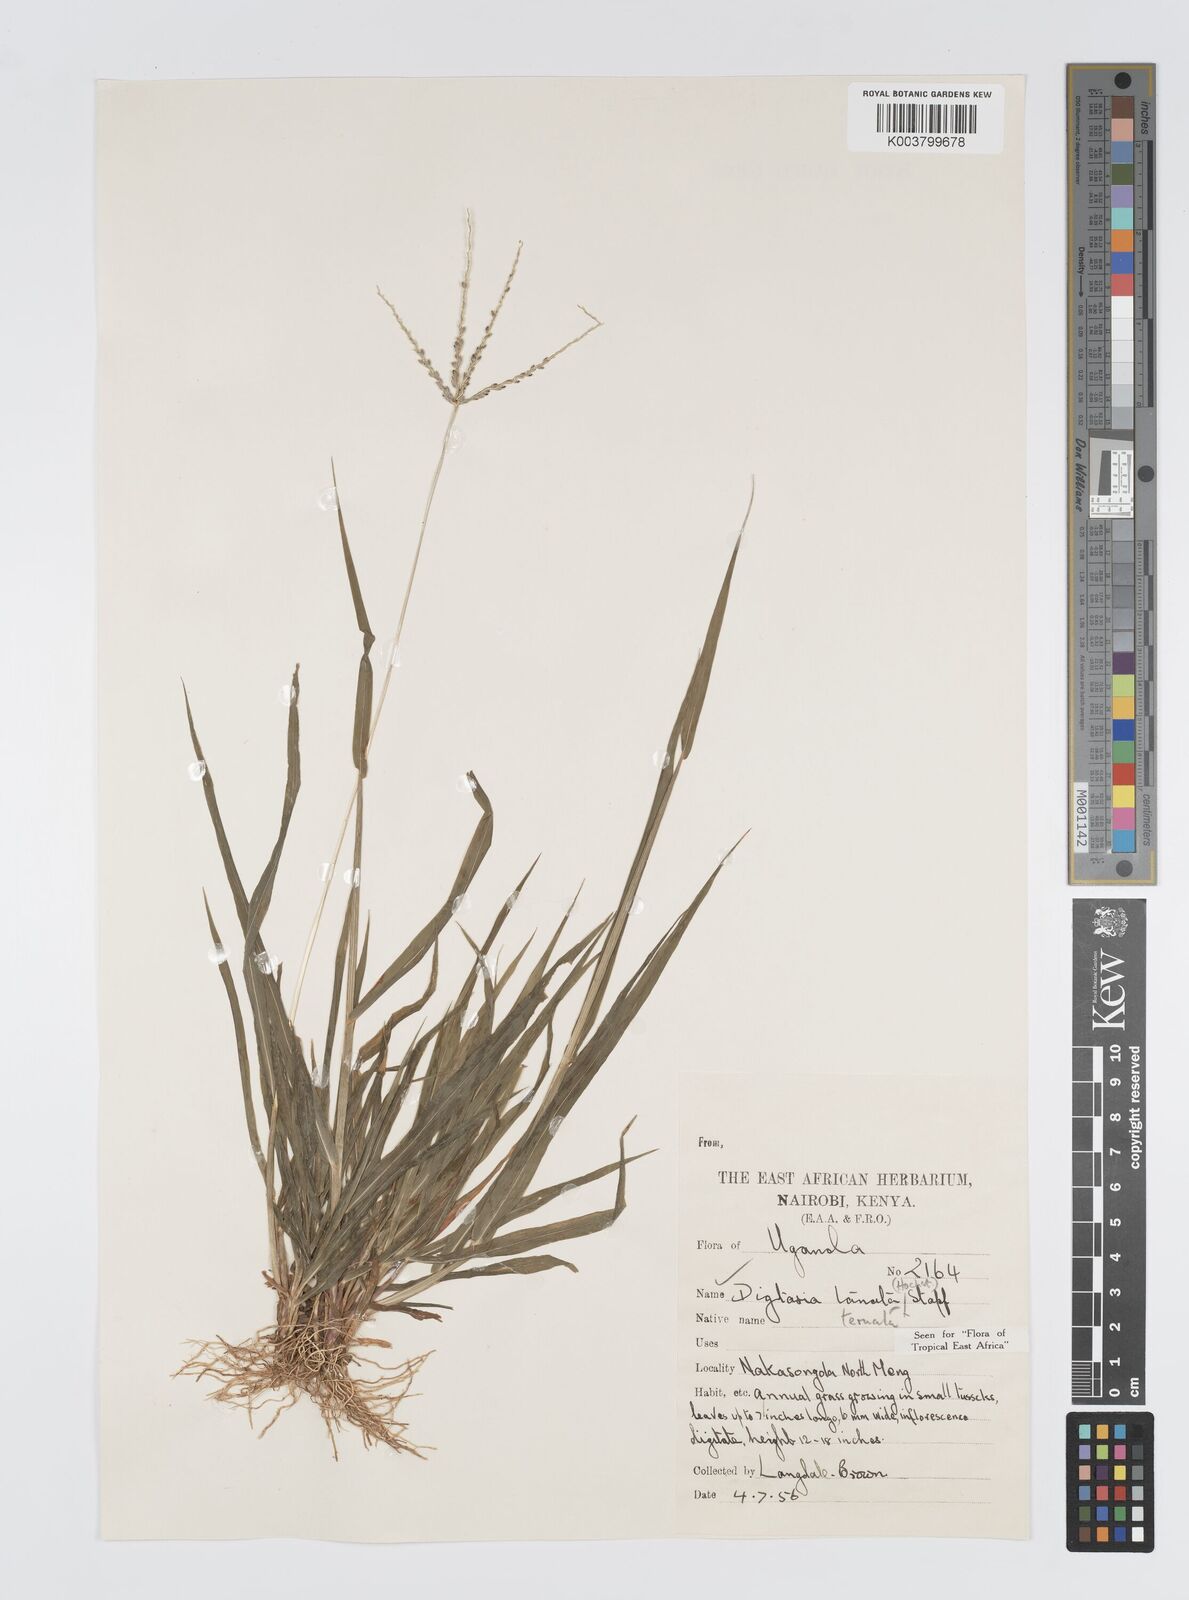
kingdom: Plantae
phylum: Tracheophyta
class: Liliopsida
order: Poales
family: Poaceae
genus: Digitaria
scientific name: Digitaria ternata
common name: Blackseed crabgrass
